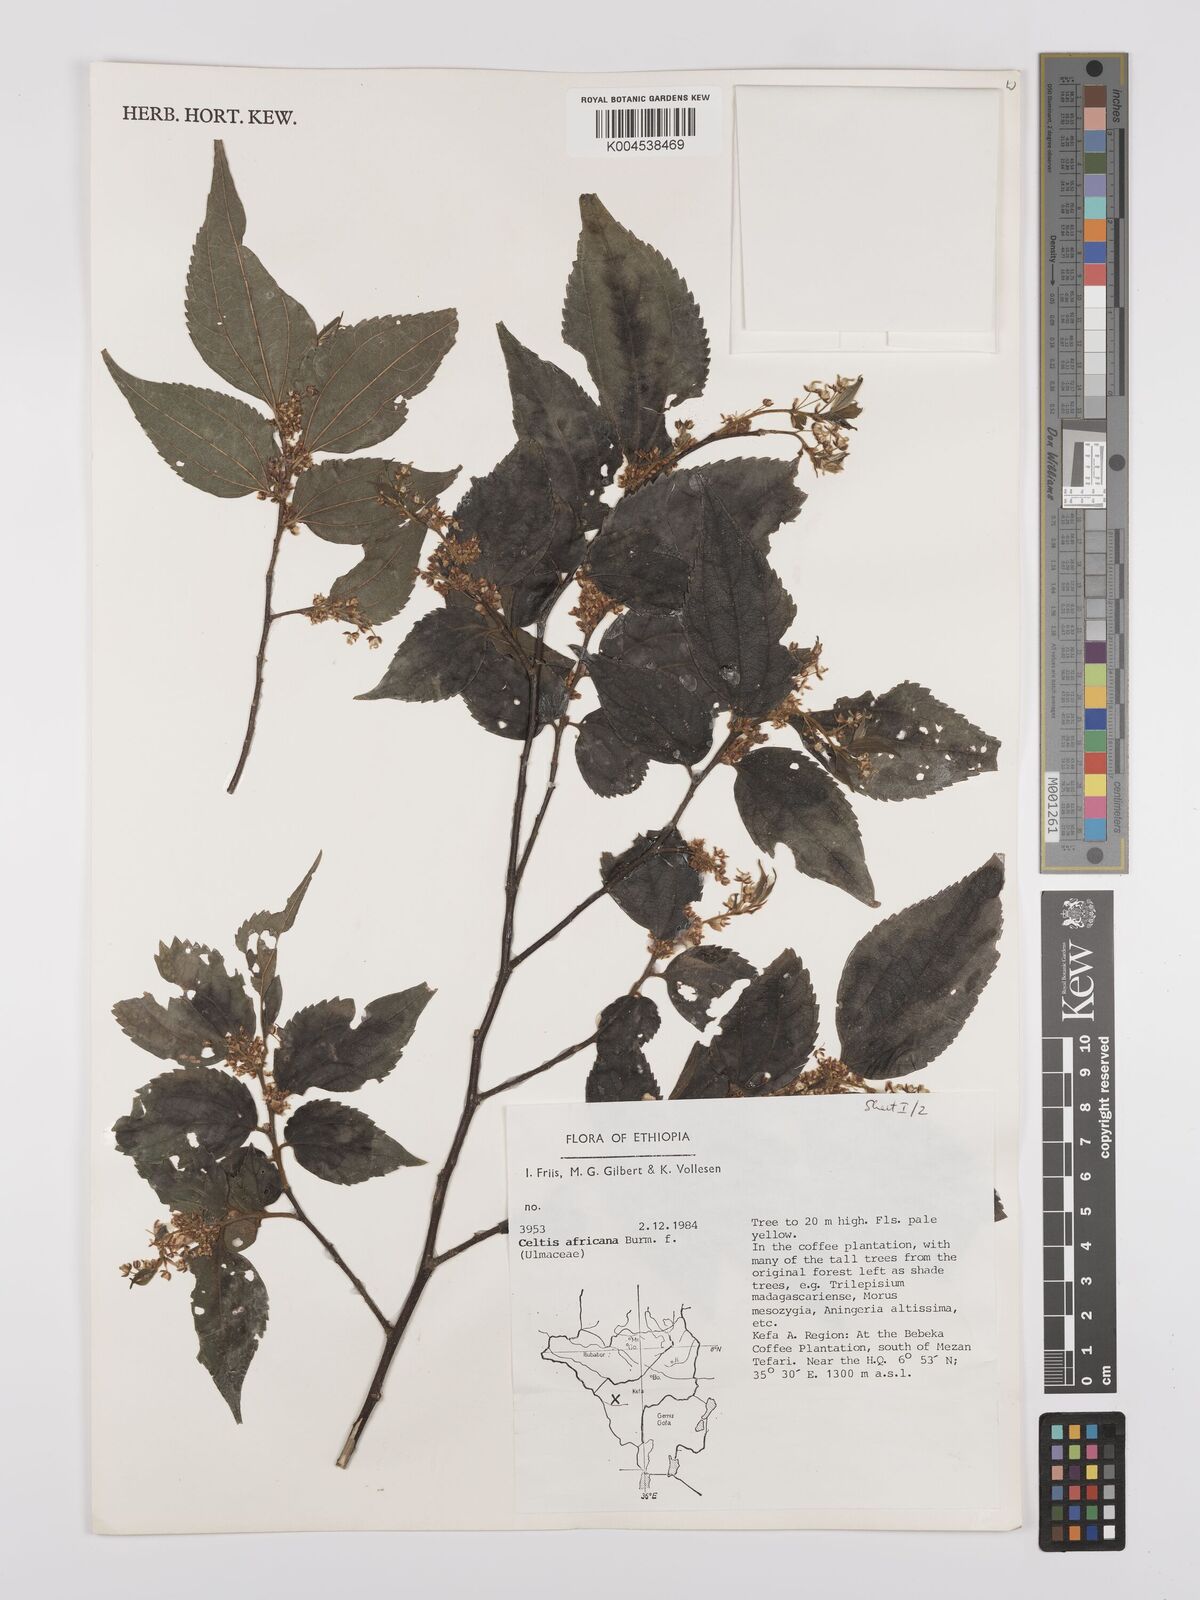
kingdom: Plantae
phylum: Tracheophyta
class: Magnoliopsida
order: Rosales
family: Cannabaceae
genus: Celtis
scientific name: Celtis africana
